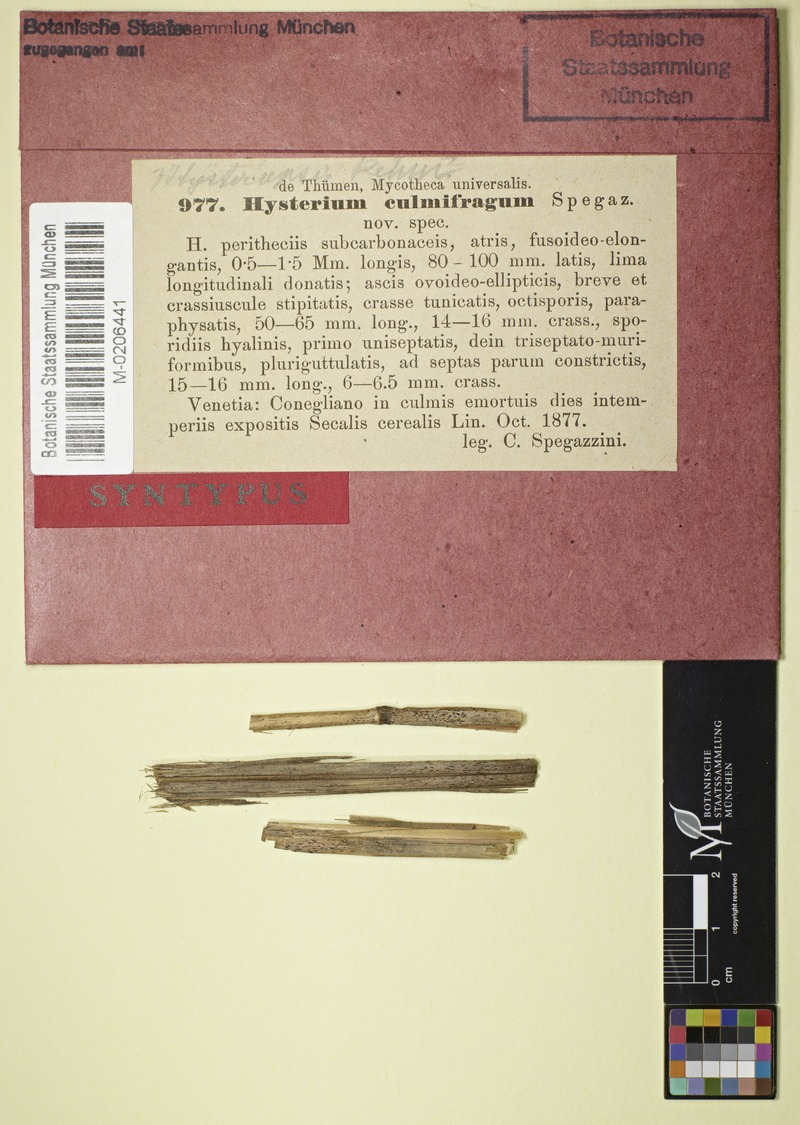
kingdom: Fungi
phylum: Ascomycota
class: Dothideomycetes
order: Hysteriales
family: Hysteriaceae
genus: Gloniopsis
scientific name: Gloniopsis
